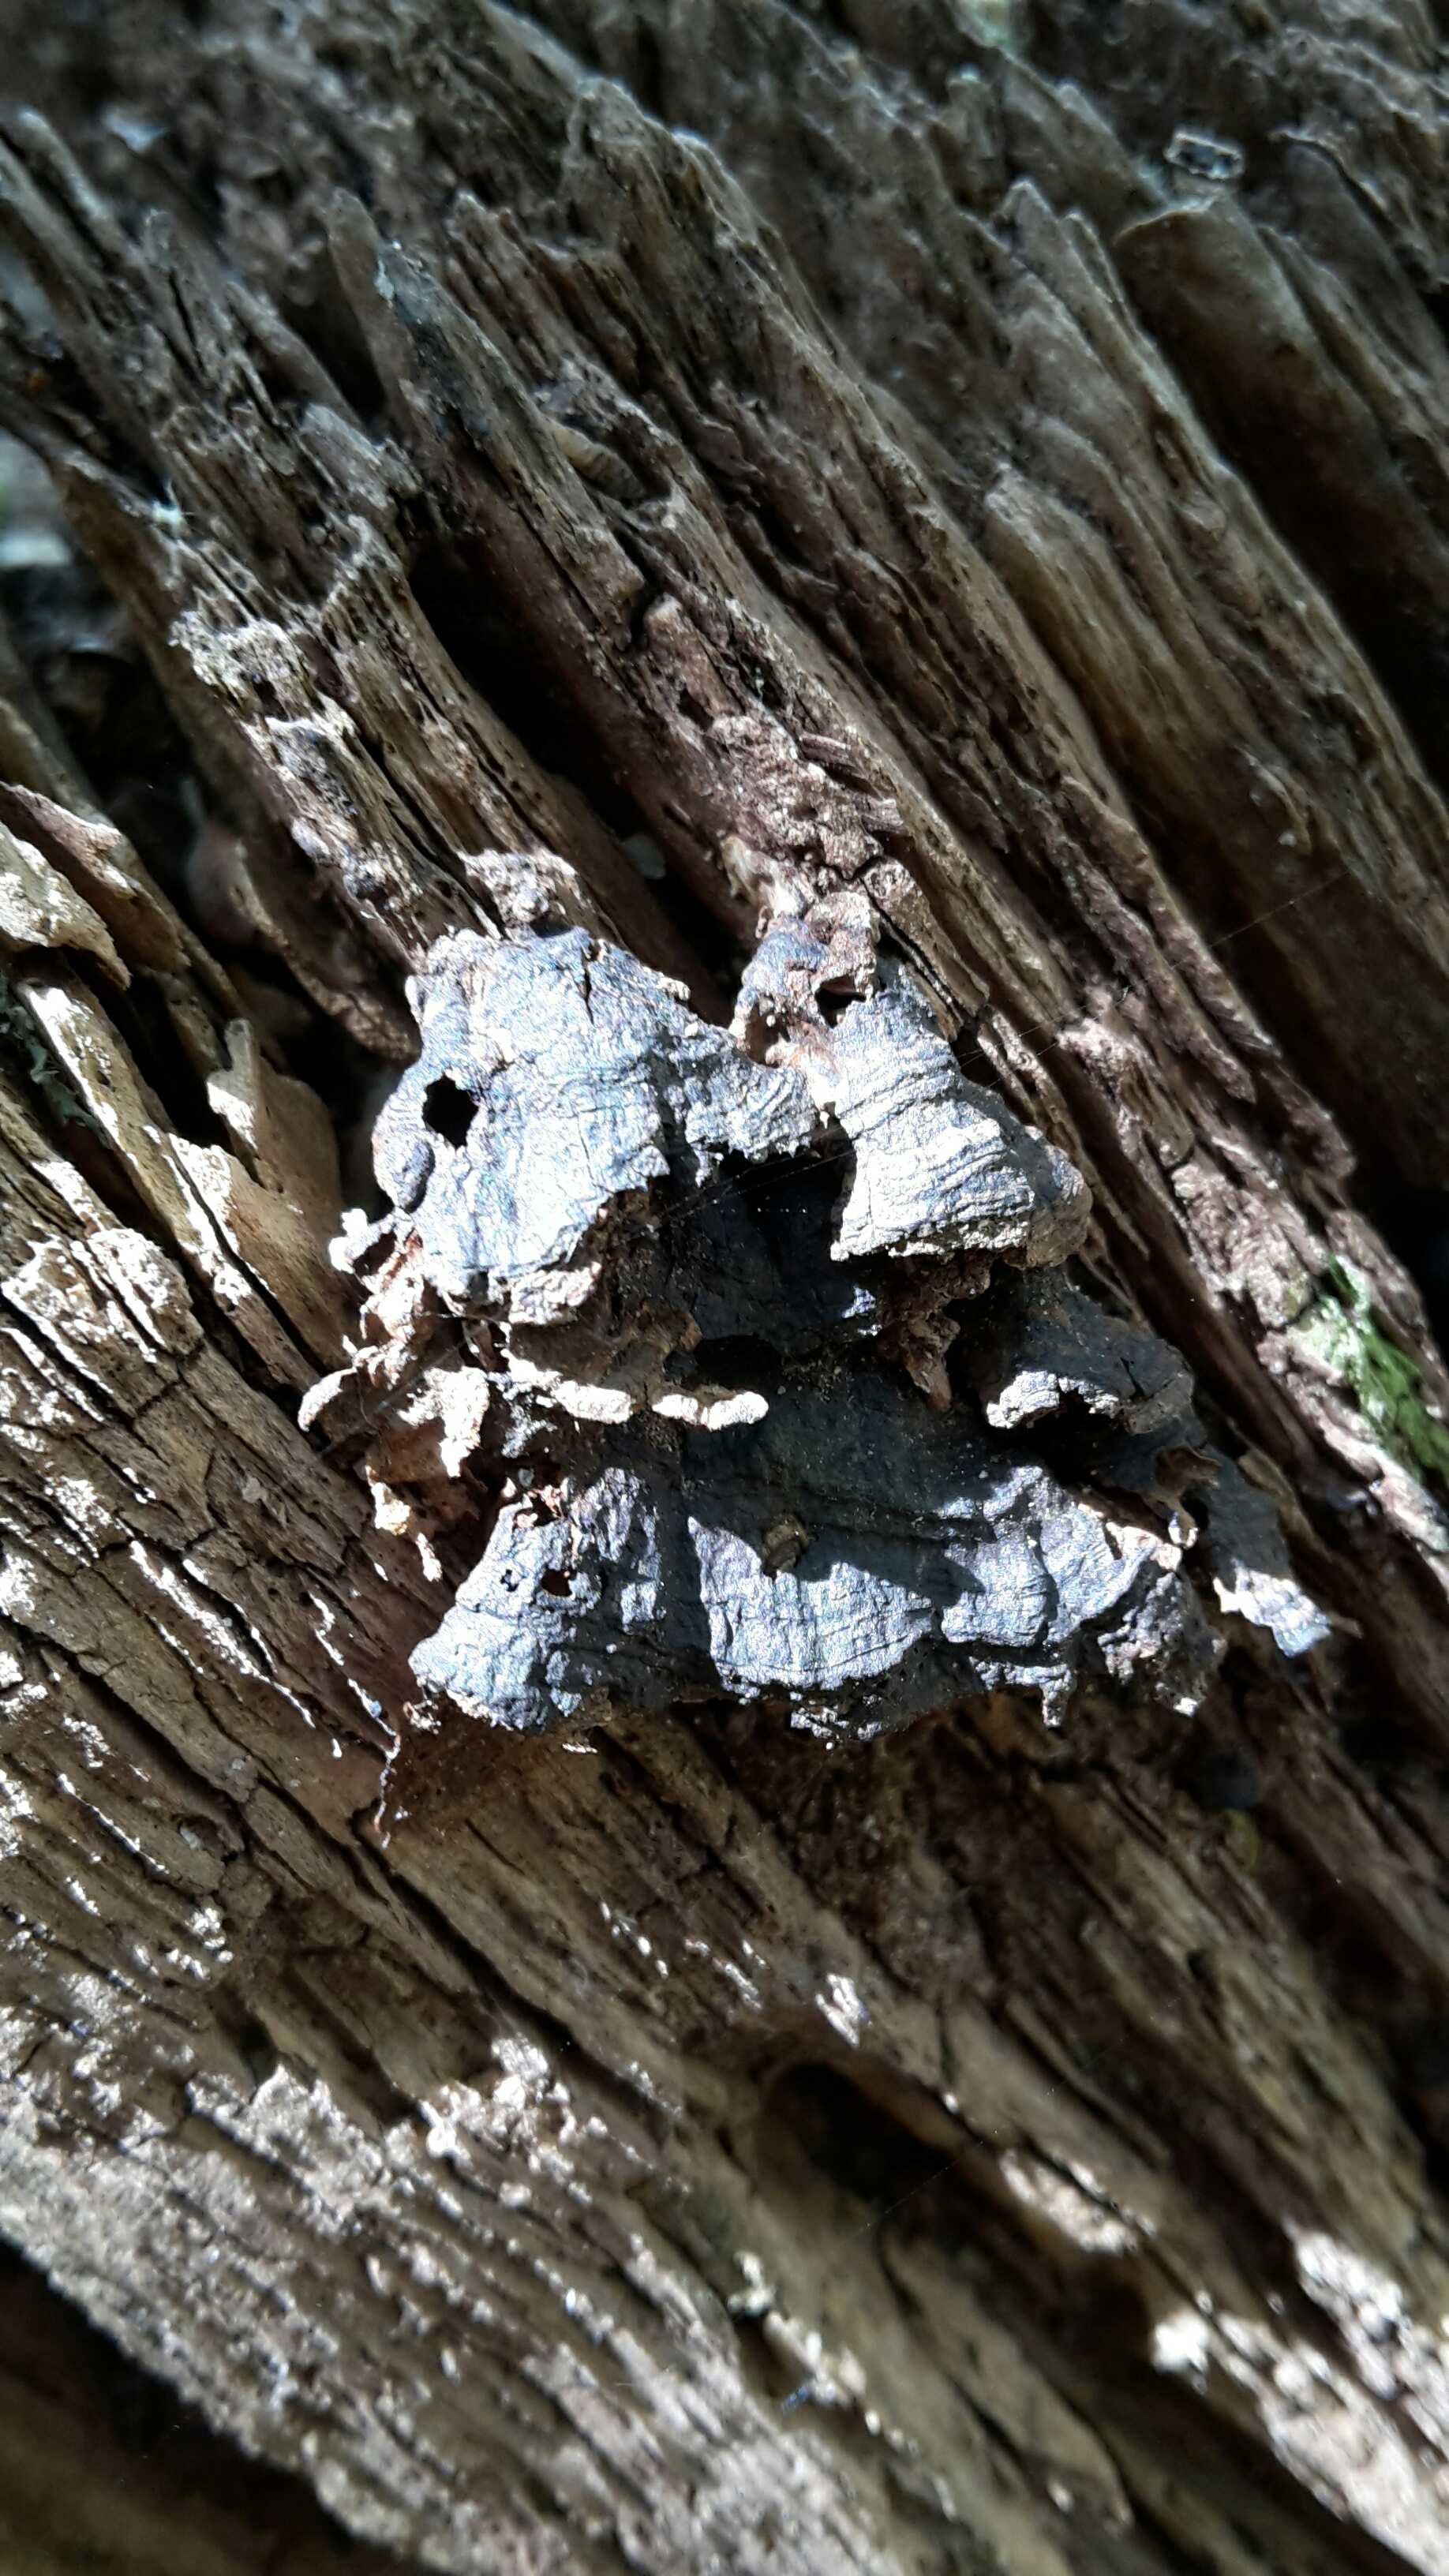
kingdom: Fungi
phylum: Basidiomycota
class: Agaricomycetes
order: Hymenochaetales
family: Hymenochaetaceae
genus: Hymenochaete
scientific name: Hymenochaete rubiginosa
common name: stiv ruslædersvamp
